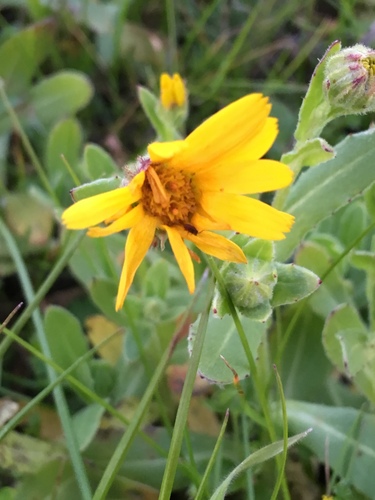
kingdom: Plantae
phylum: Tracheophyta
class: Magnoliopsida
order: Asterales
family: Asteraceae
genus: Calendula
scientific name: Calendula arvensis
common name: Field marigold
